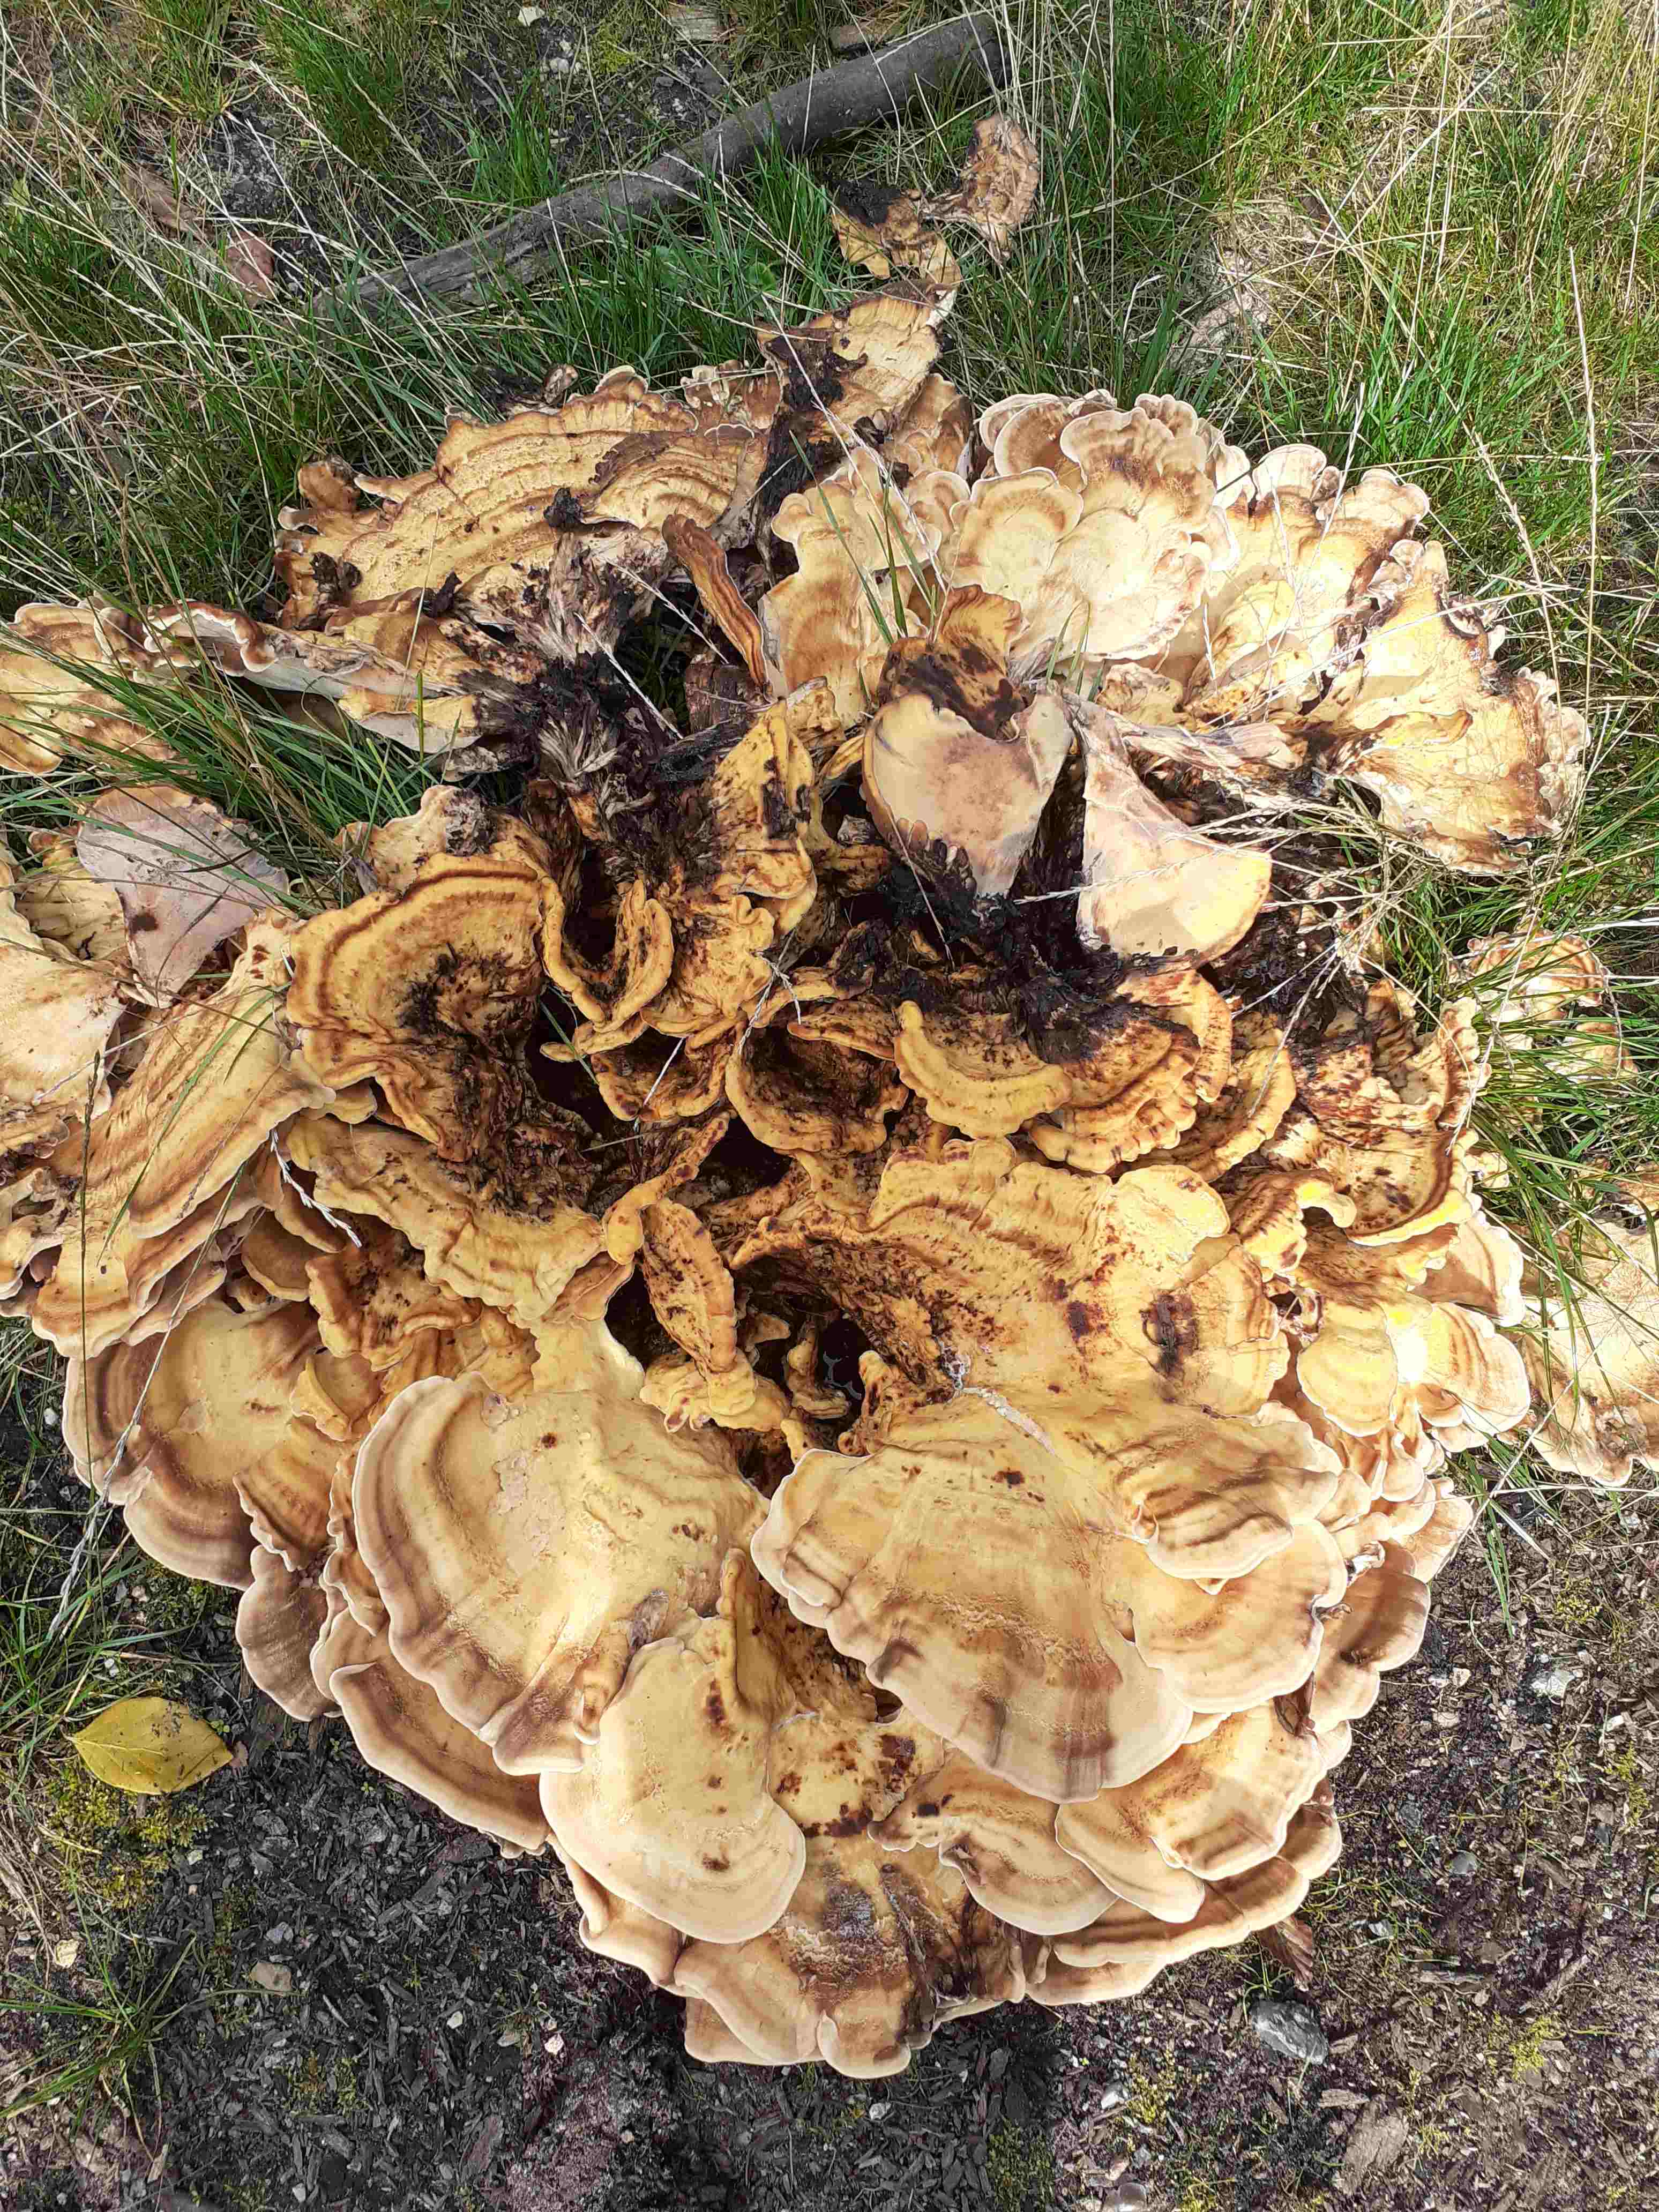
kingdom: Fungi
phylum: Basidiomycota
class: Agaricomycetes
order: Polyporales
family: Meripilaceae
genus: Meripilus
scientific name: Meripilus giganteus
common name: kæmpeporesvamp
